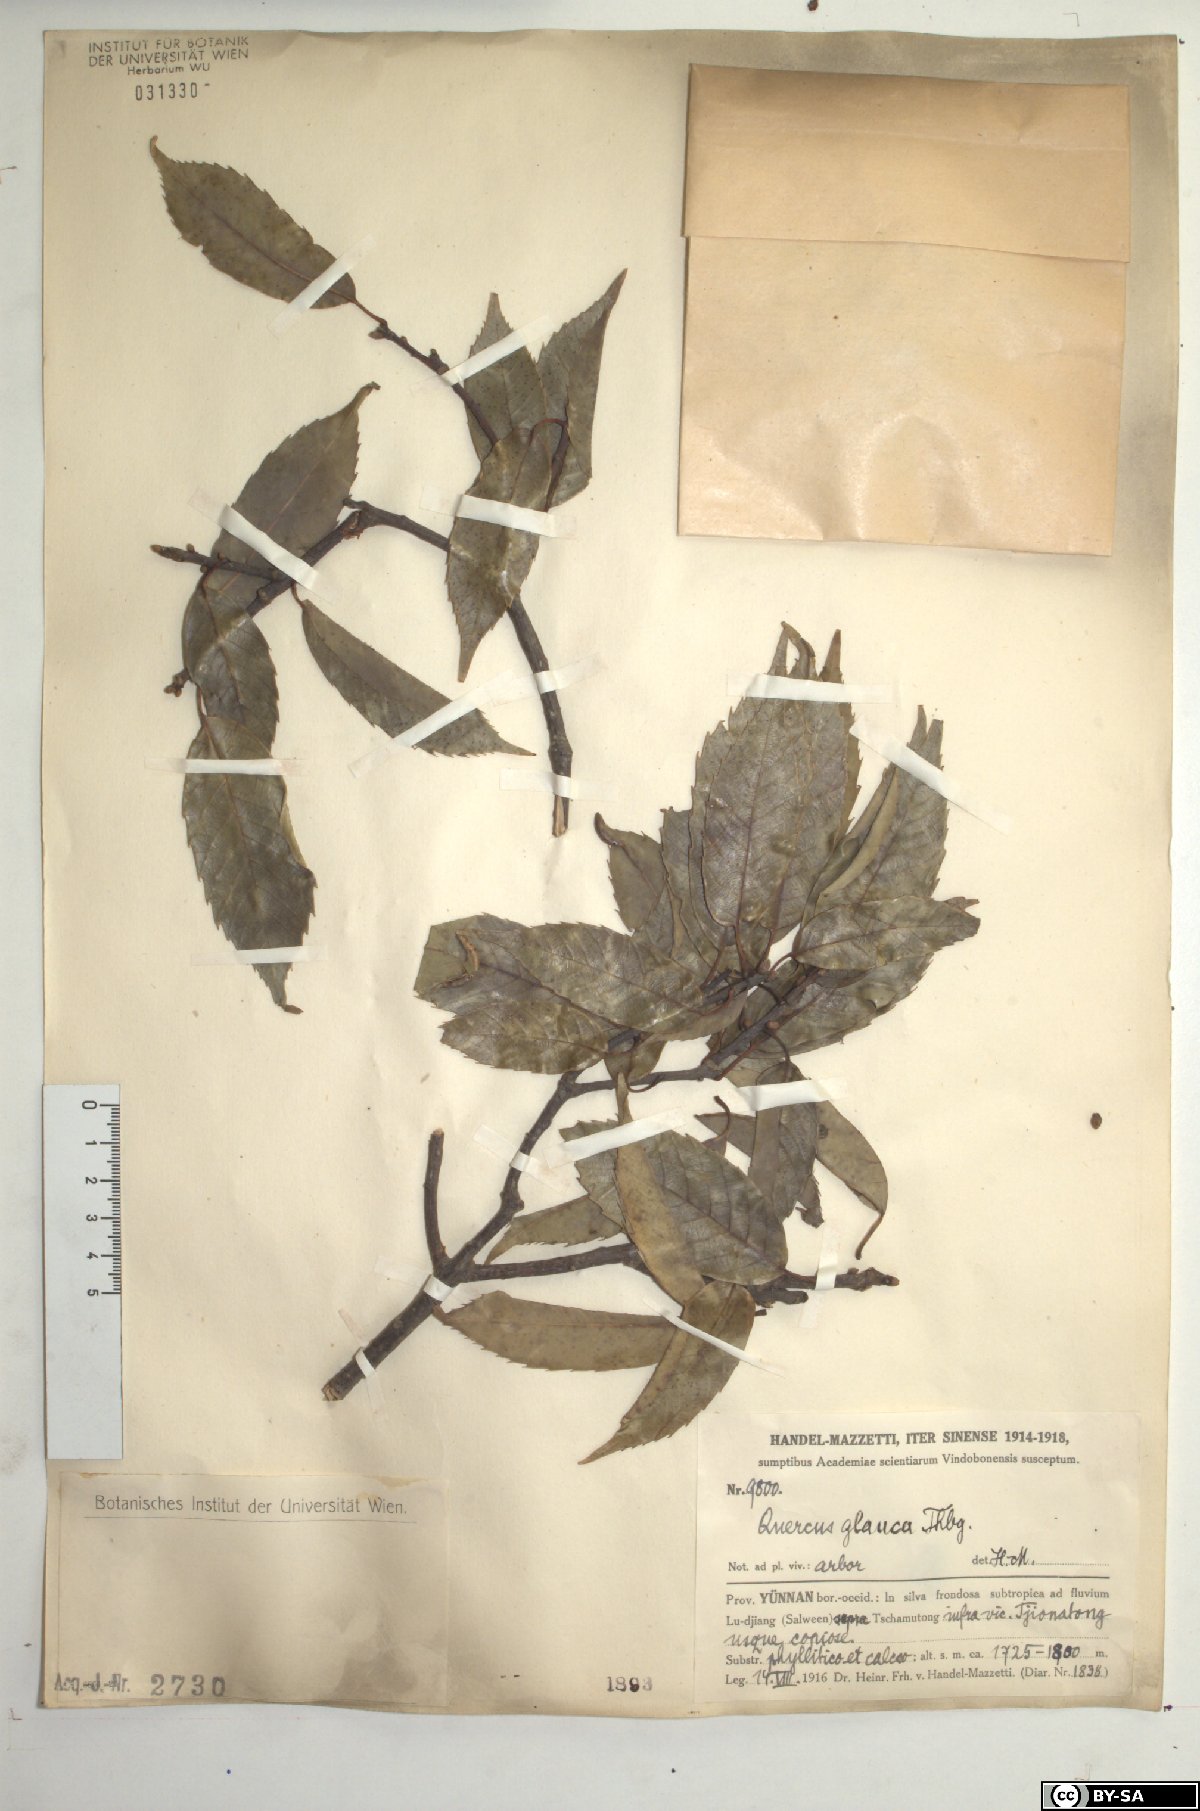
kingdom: Plantae
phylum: Tracheophyta
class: Magnoliopsida
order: Fagales
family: Fagaceae
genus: Quercus
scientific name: Quercus glauca
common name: Ring-cup oak
